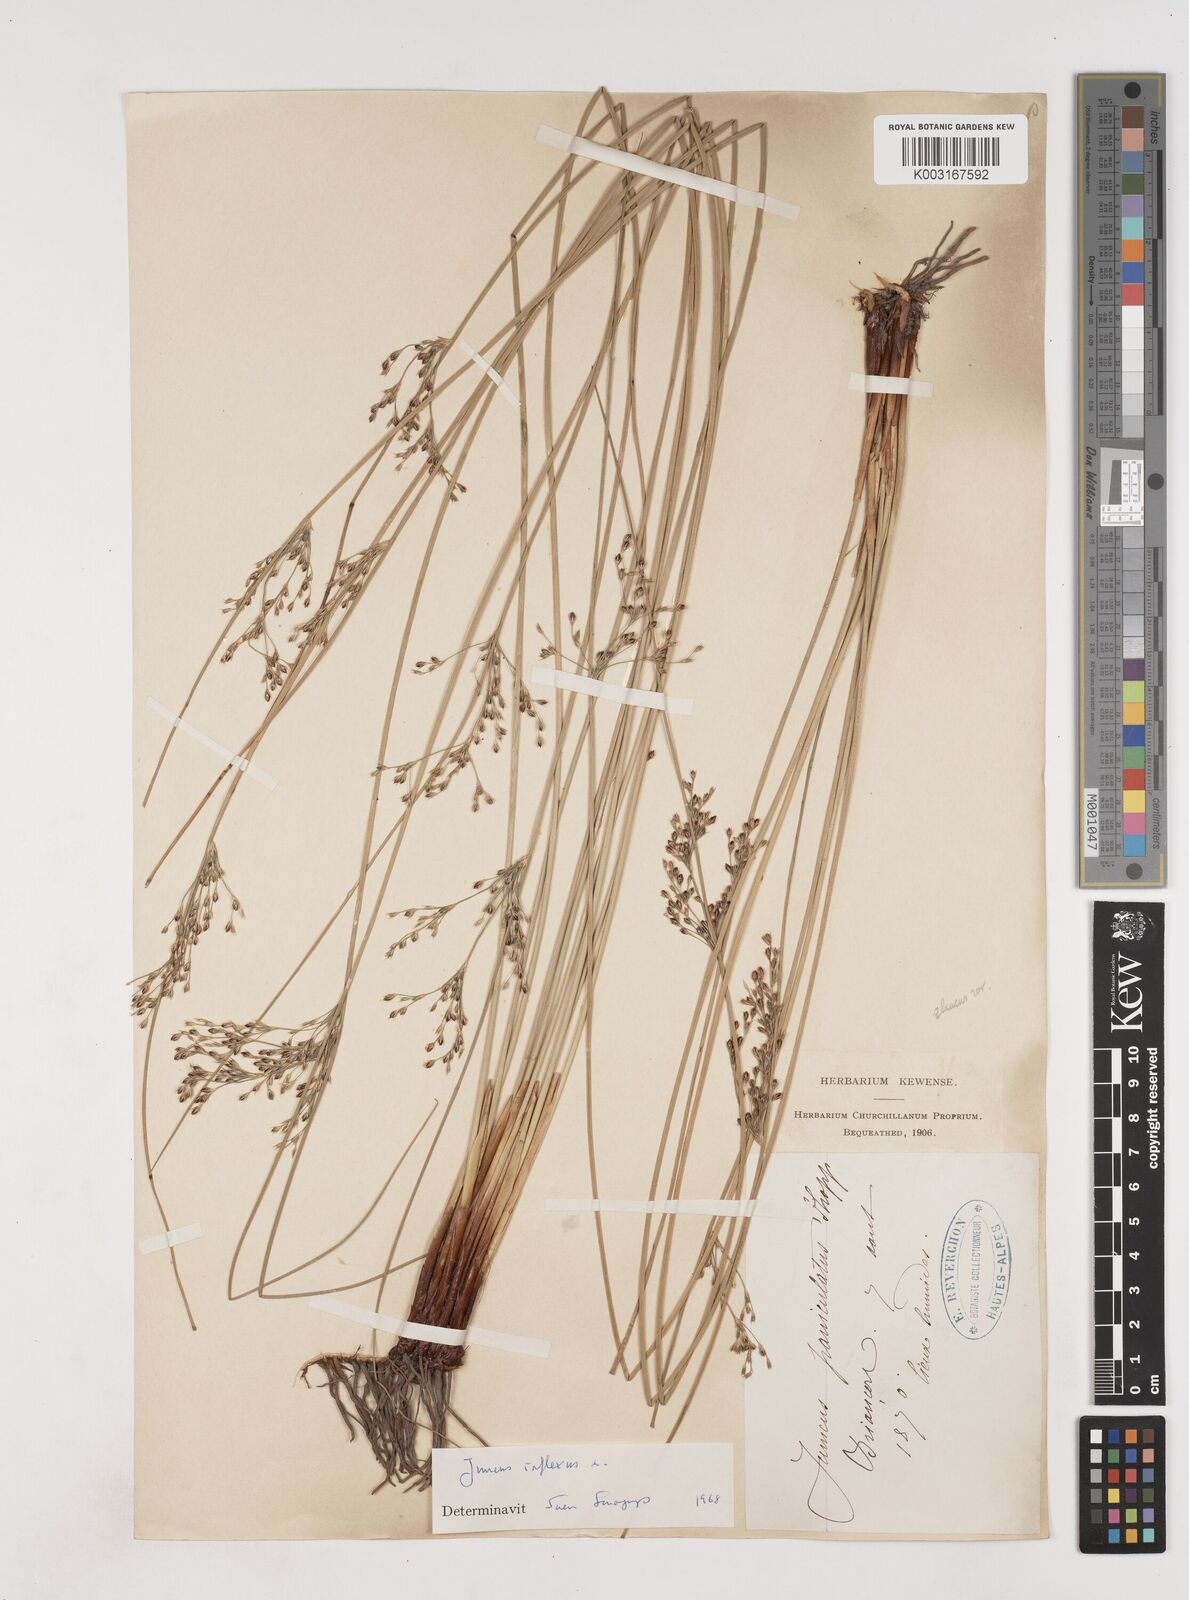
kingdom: Plantae
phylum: Tracheophyta
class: Liliopsida
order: Poales
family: Juncaceae
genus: Juncus
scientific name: Juncus inflexus
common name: Hard rush
